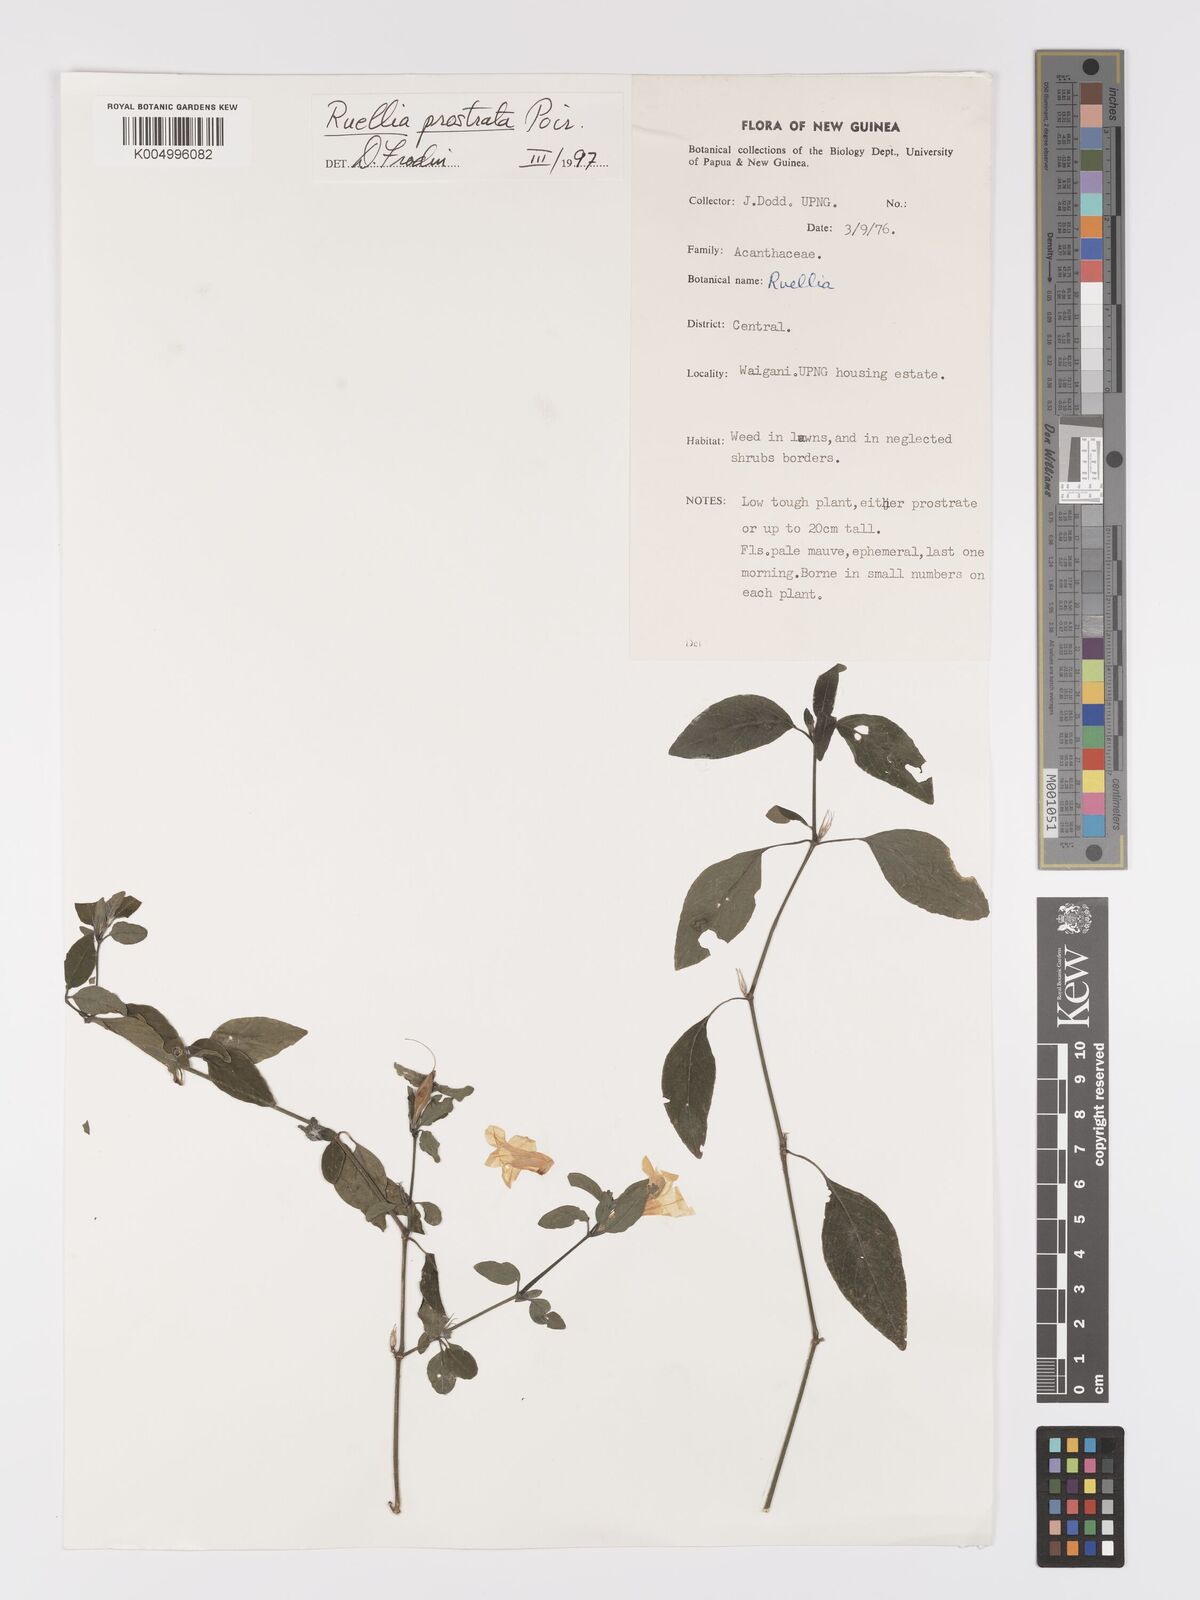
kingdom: Plantae
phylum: Tracheophyta
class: Magnoliopsida
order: Lamiales
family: Acanthaceae
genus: Ruellia
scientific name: Ruellia
